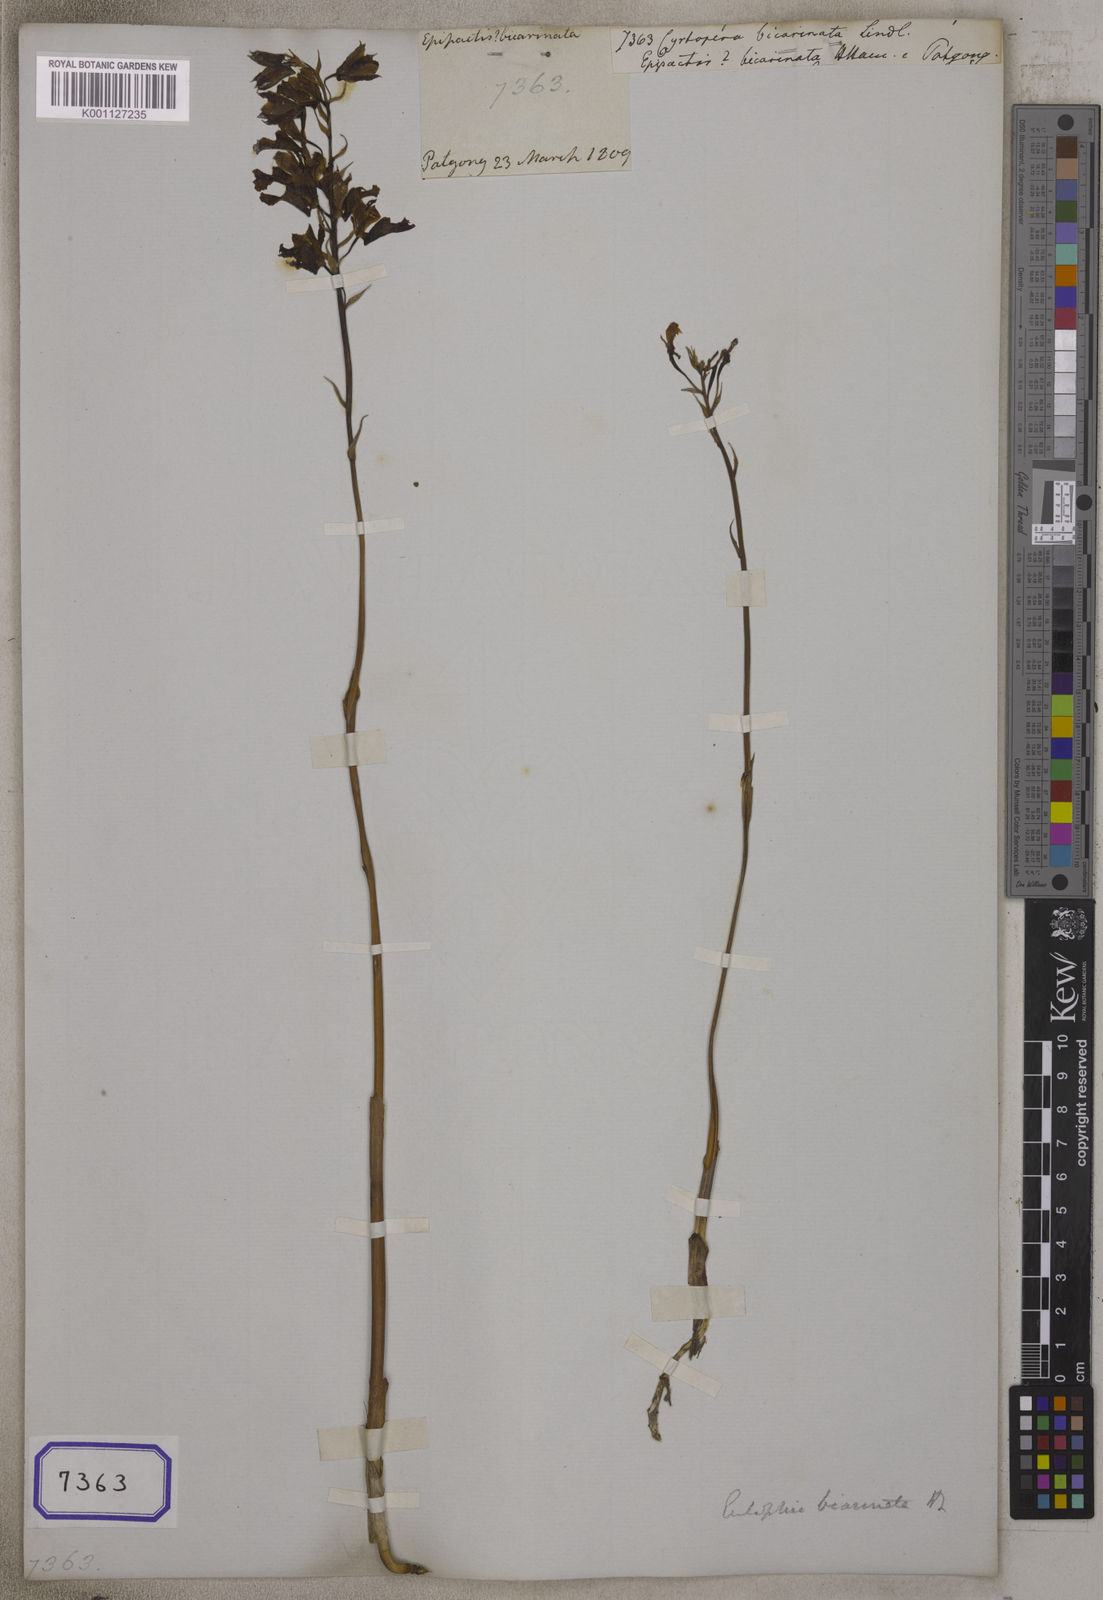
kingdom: Plantae
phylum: Tracheophyta
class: Liliopsida
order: Asparagales
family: Orchidaceae
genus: Eulophia
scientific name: Eulophia bicallosa
